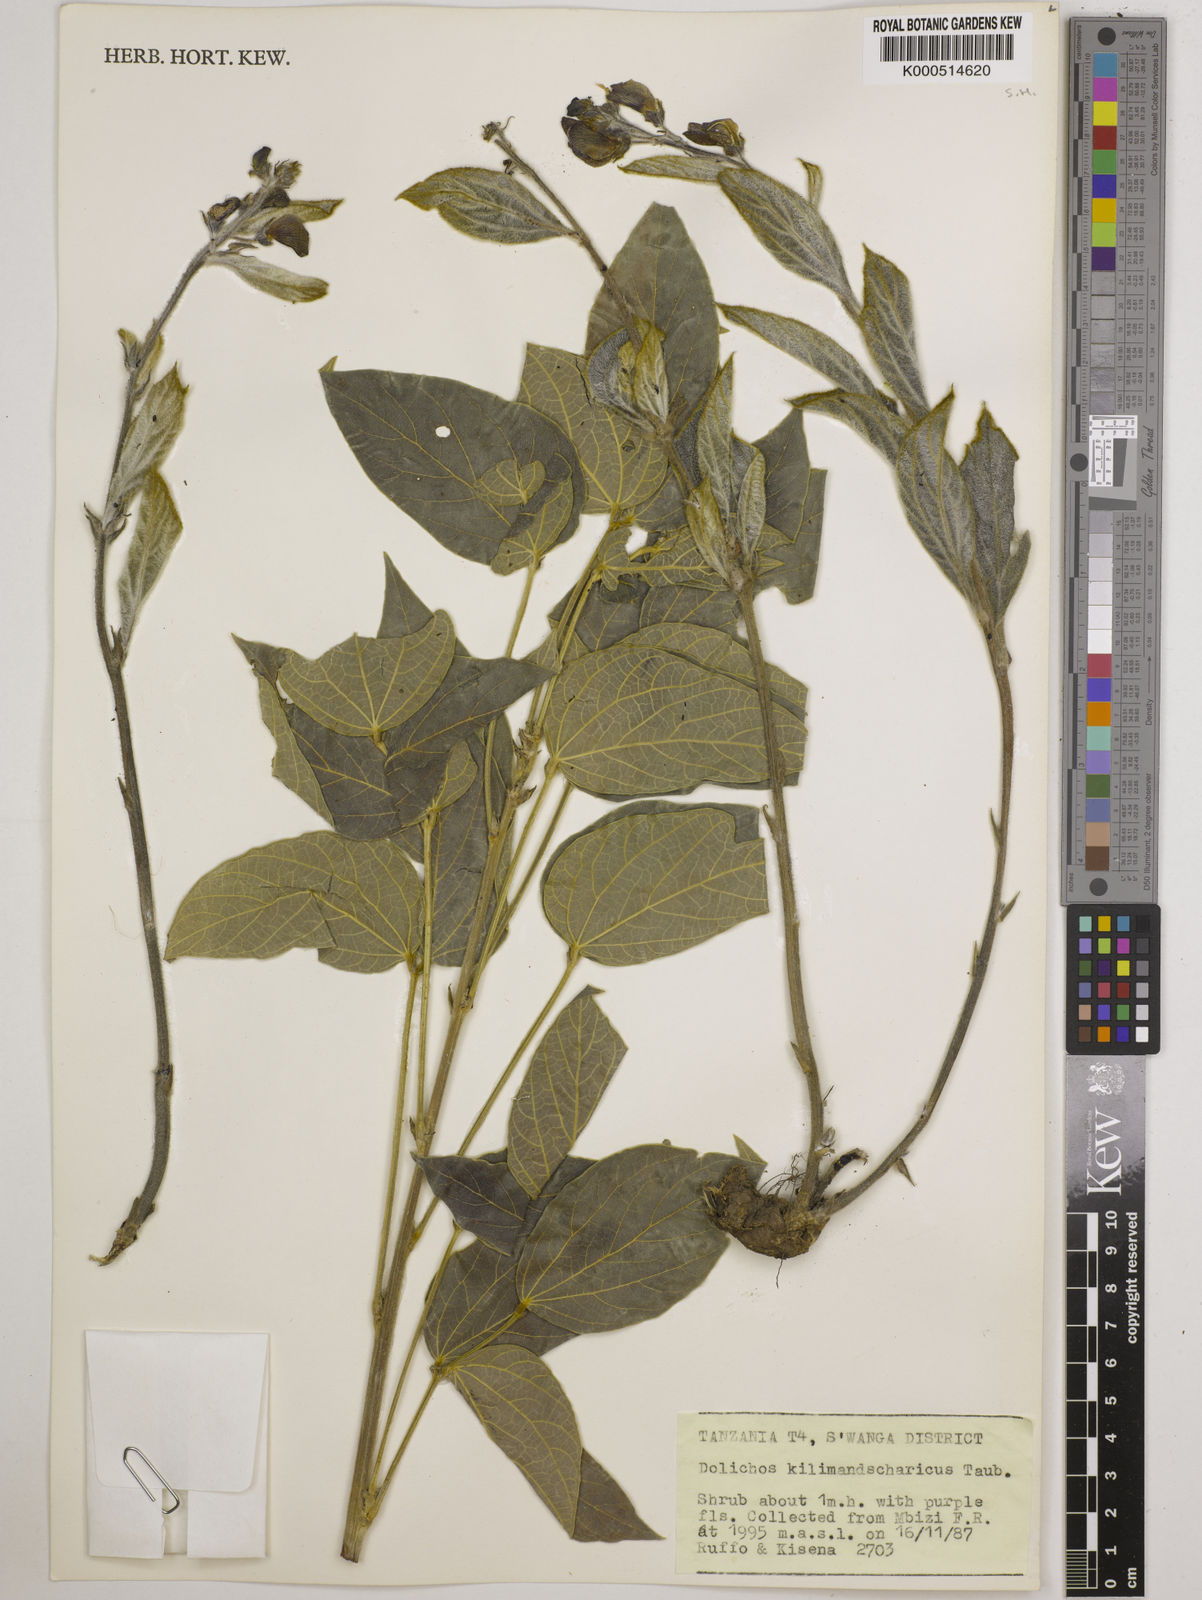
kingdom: Plantae
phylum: Tracheophyta
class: Magnoliopsida
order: Fabales
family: Fabaceae
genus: Dolichos
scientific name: Dolichos kilimandscharicus
